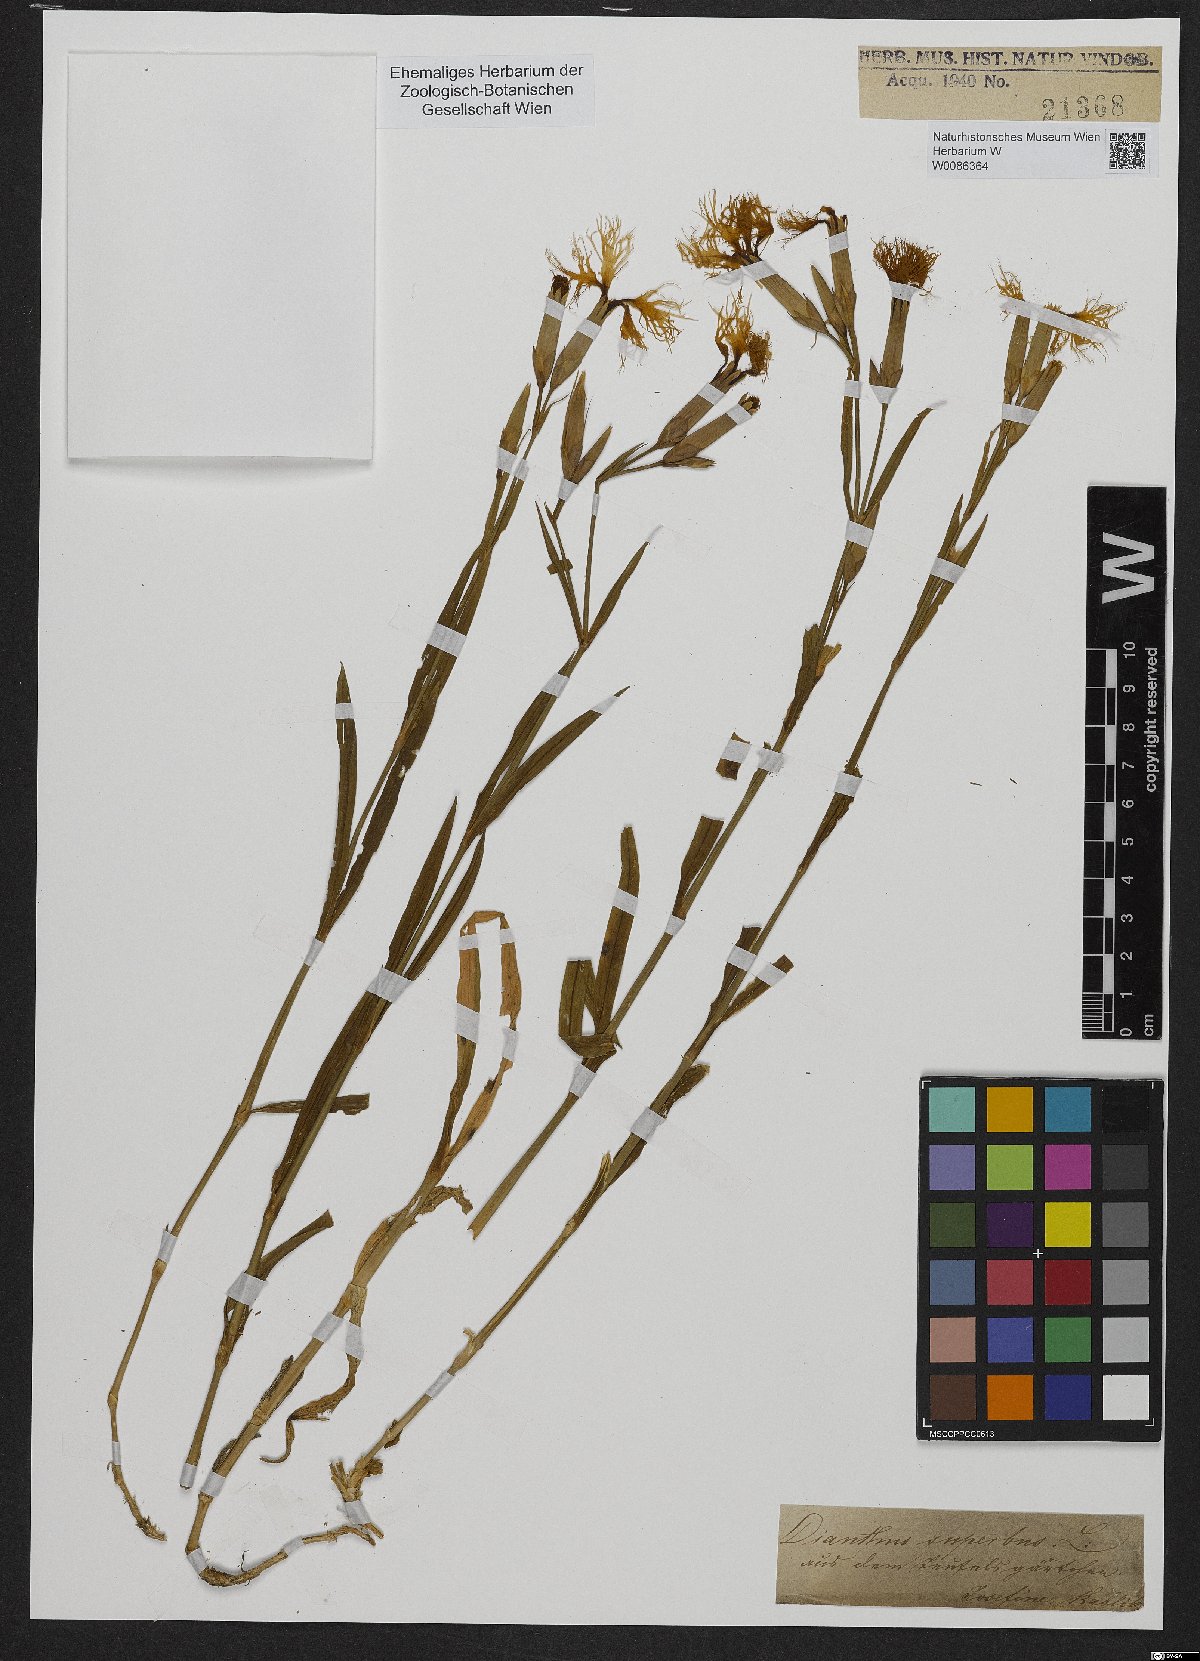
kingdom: Plantae
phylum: Tracheophyta
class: Magnoliopsida
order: Caryophyllales
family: Caryophyllaceae
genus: Dianthus
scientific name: Dianthus superbus
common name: Fringed pink
